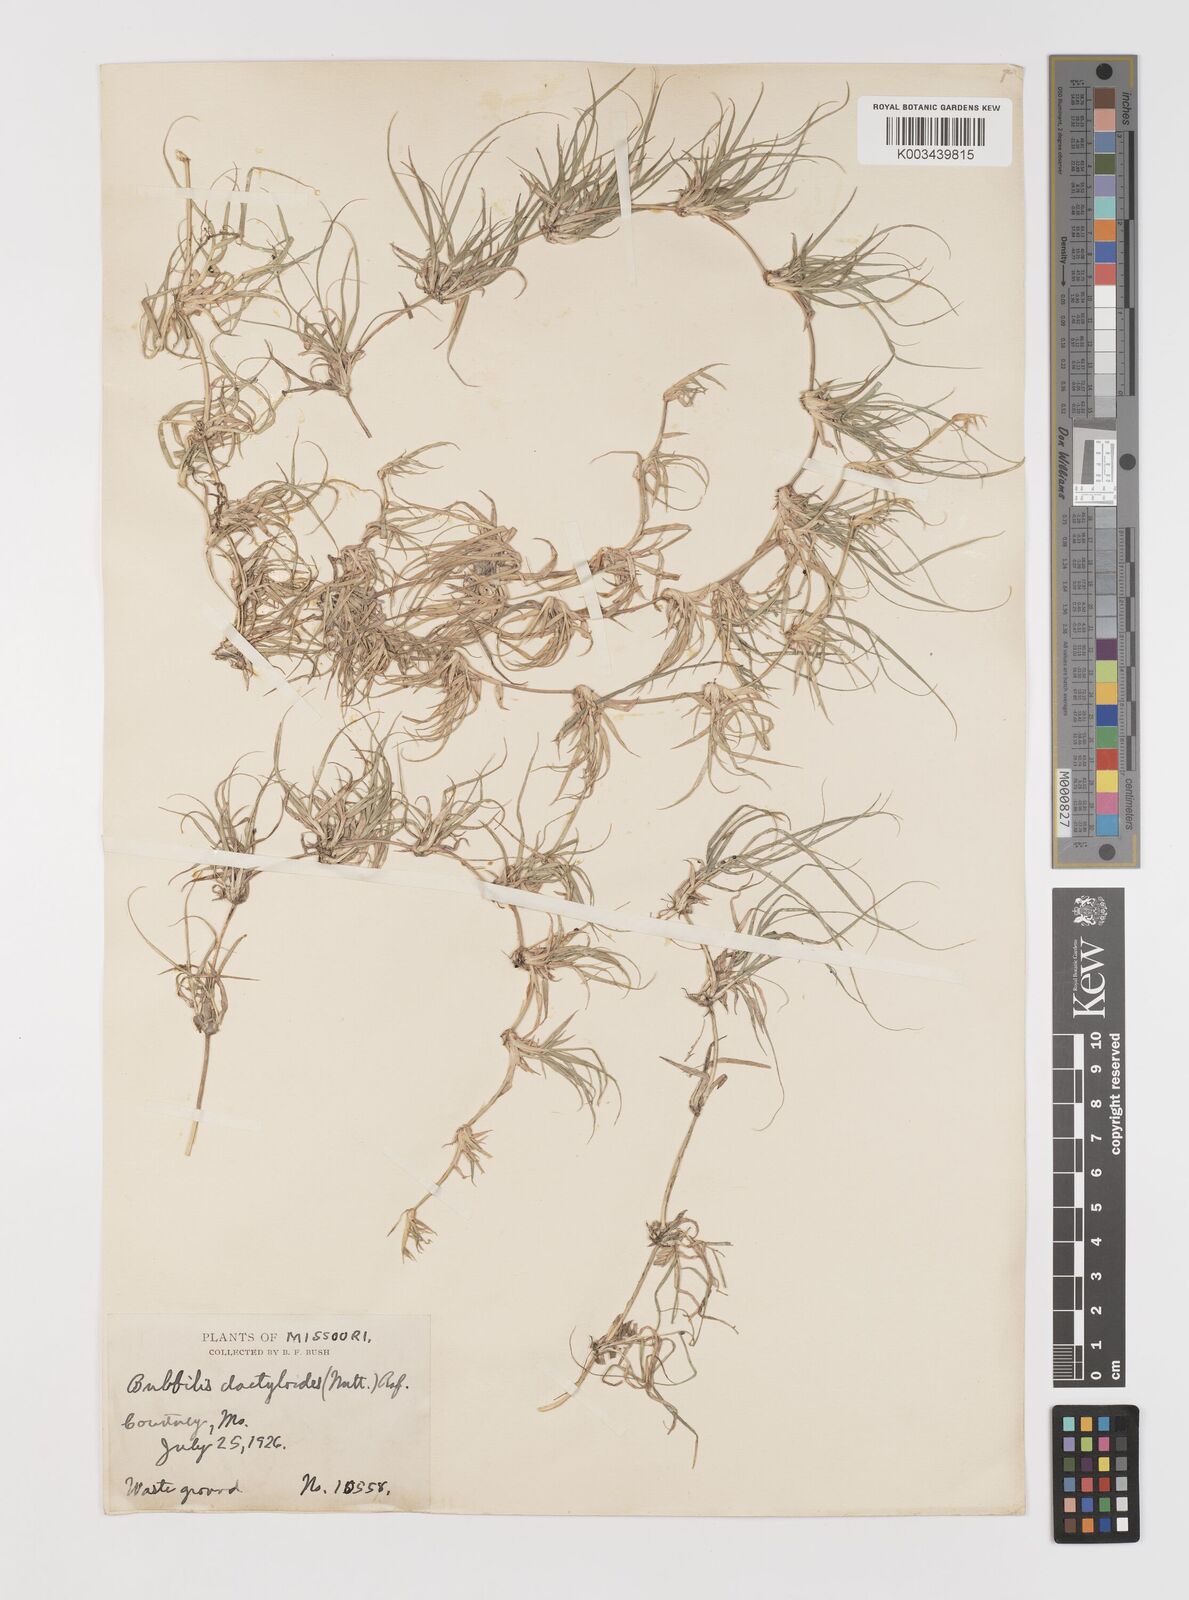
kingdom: Plantae
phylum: Tracheophyta
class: Liliopsida
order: Poales
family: Poaceae
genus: Bouteloua
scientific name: Bouteloua dactyloides
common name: Buffalo grass
